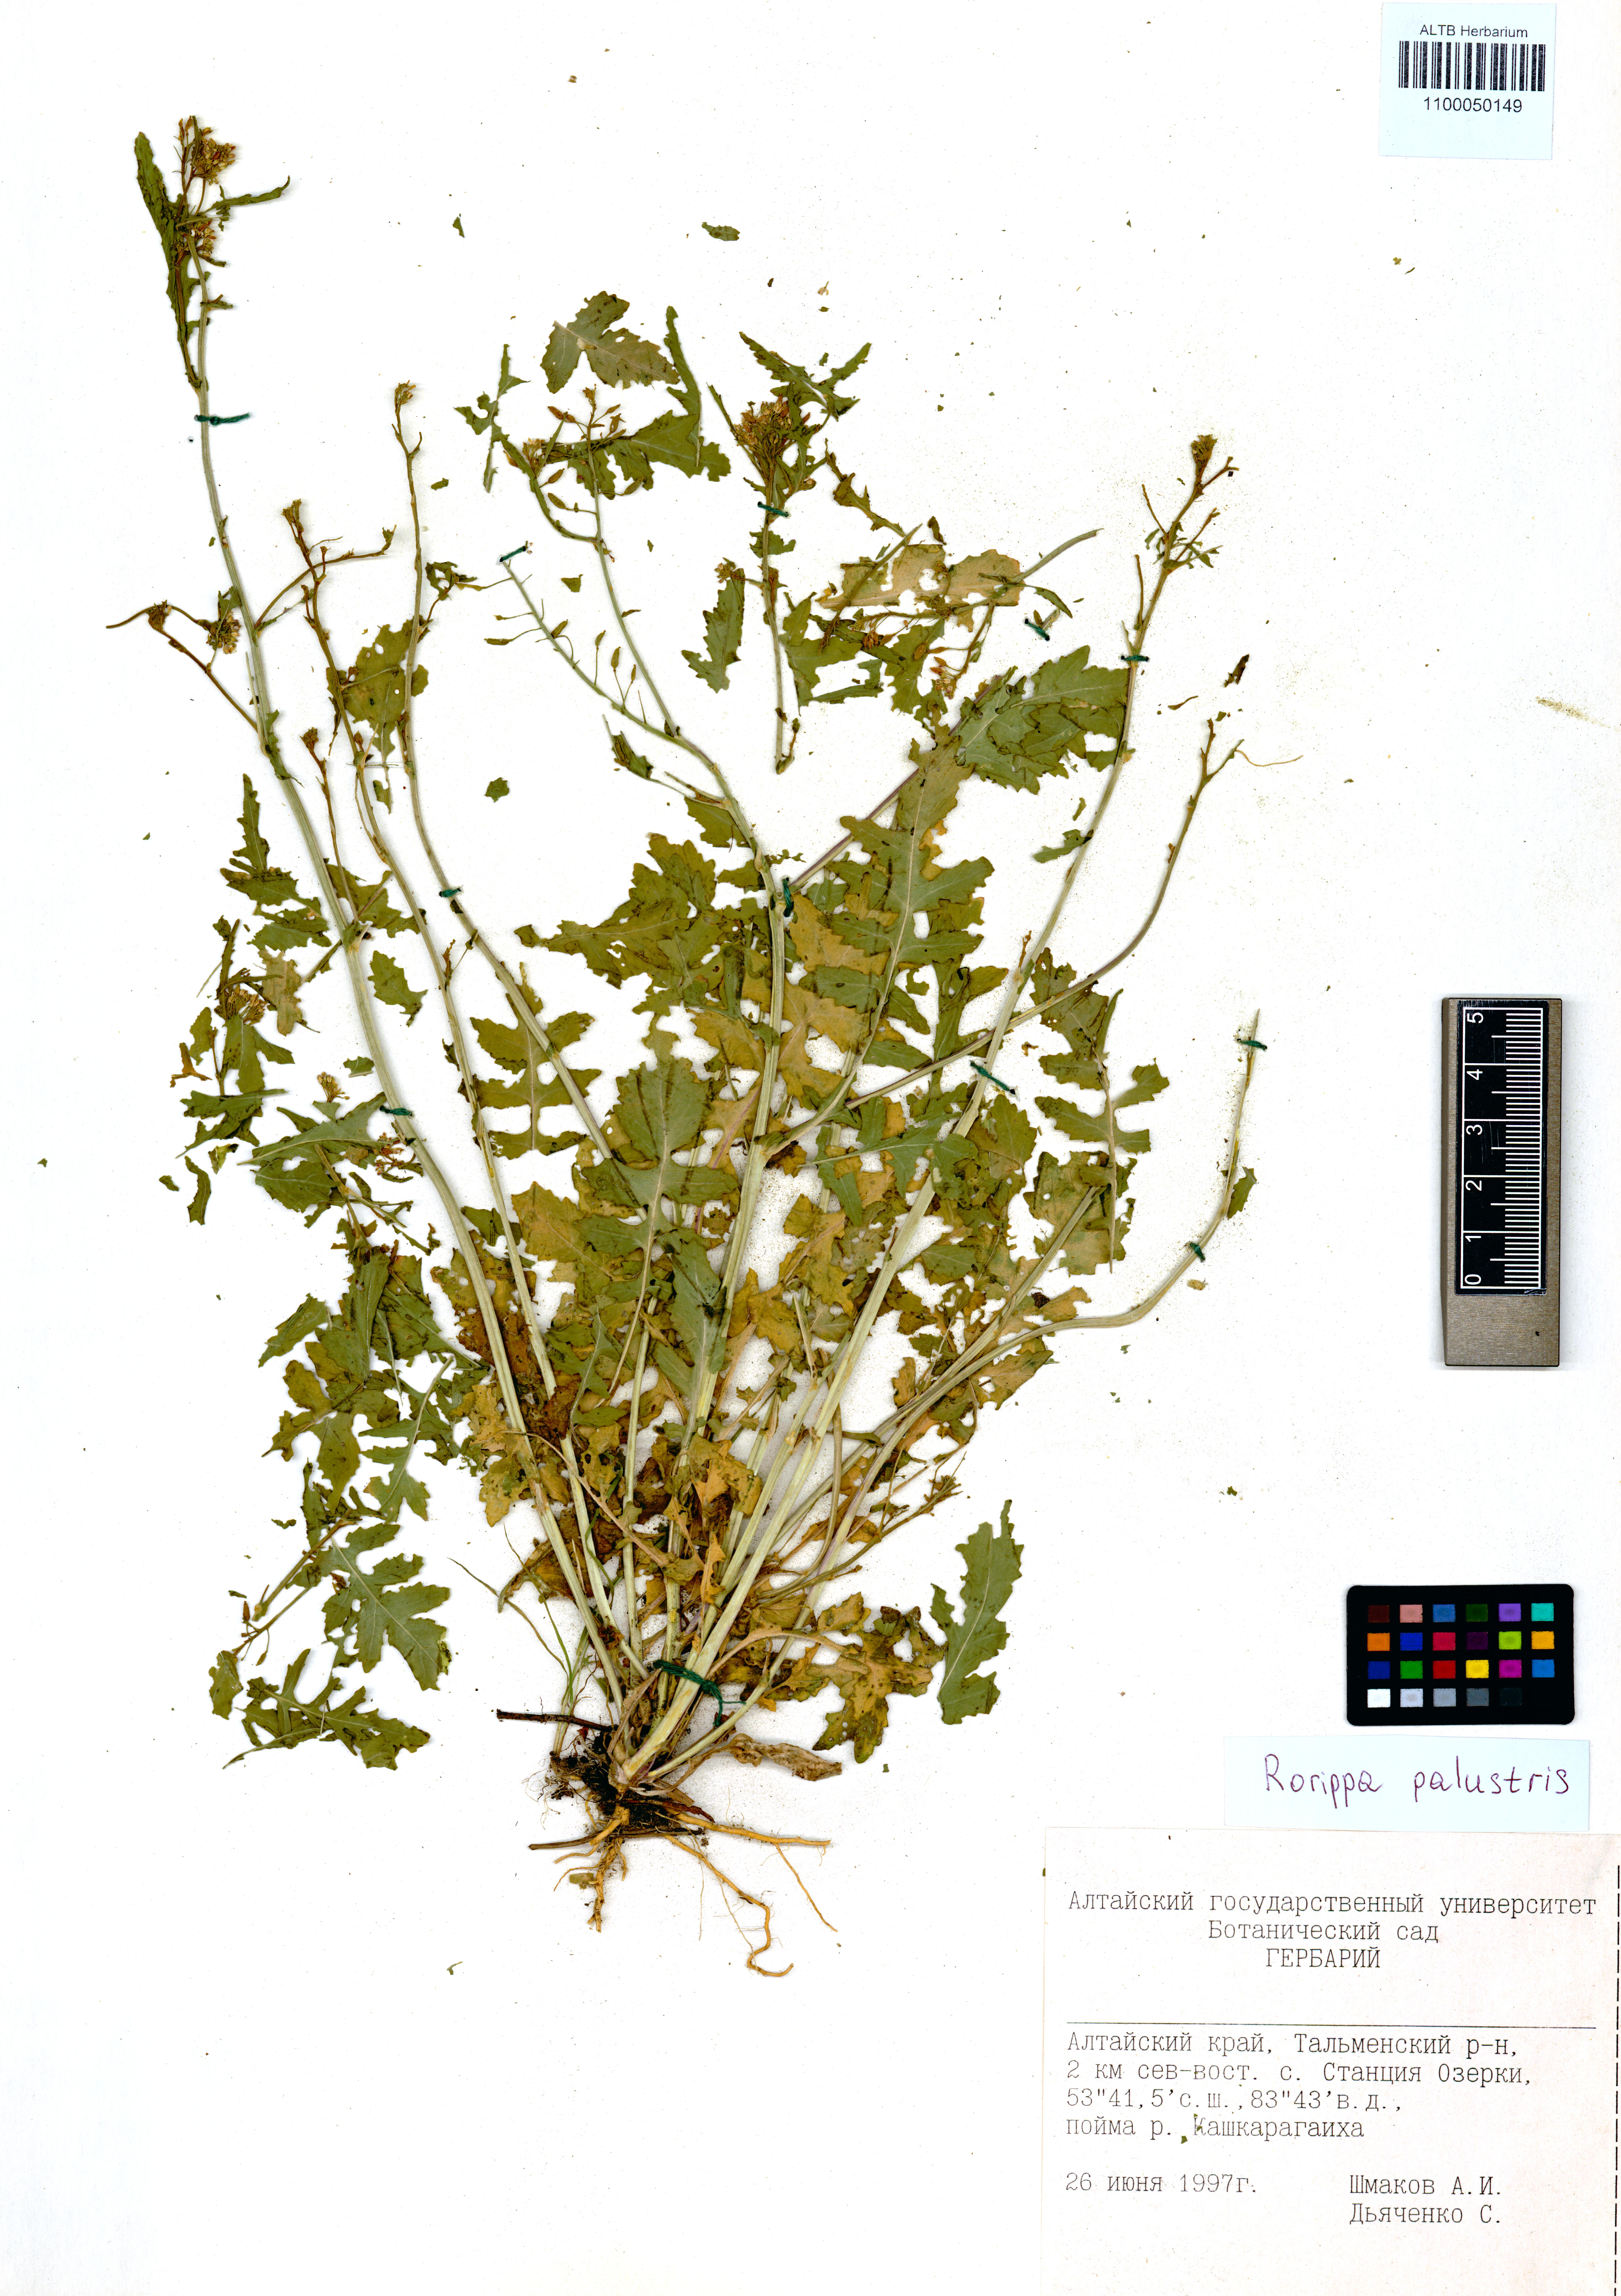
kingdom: Plantae
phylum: Tracheophyta
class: Magnoliopsida
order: Brassicales
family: Brassicaceae
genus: Rorippa
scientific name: Rorippa palustris
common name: Marsh yellow-cress
